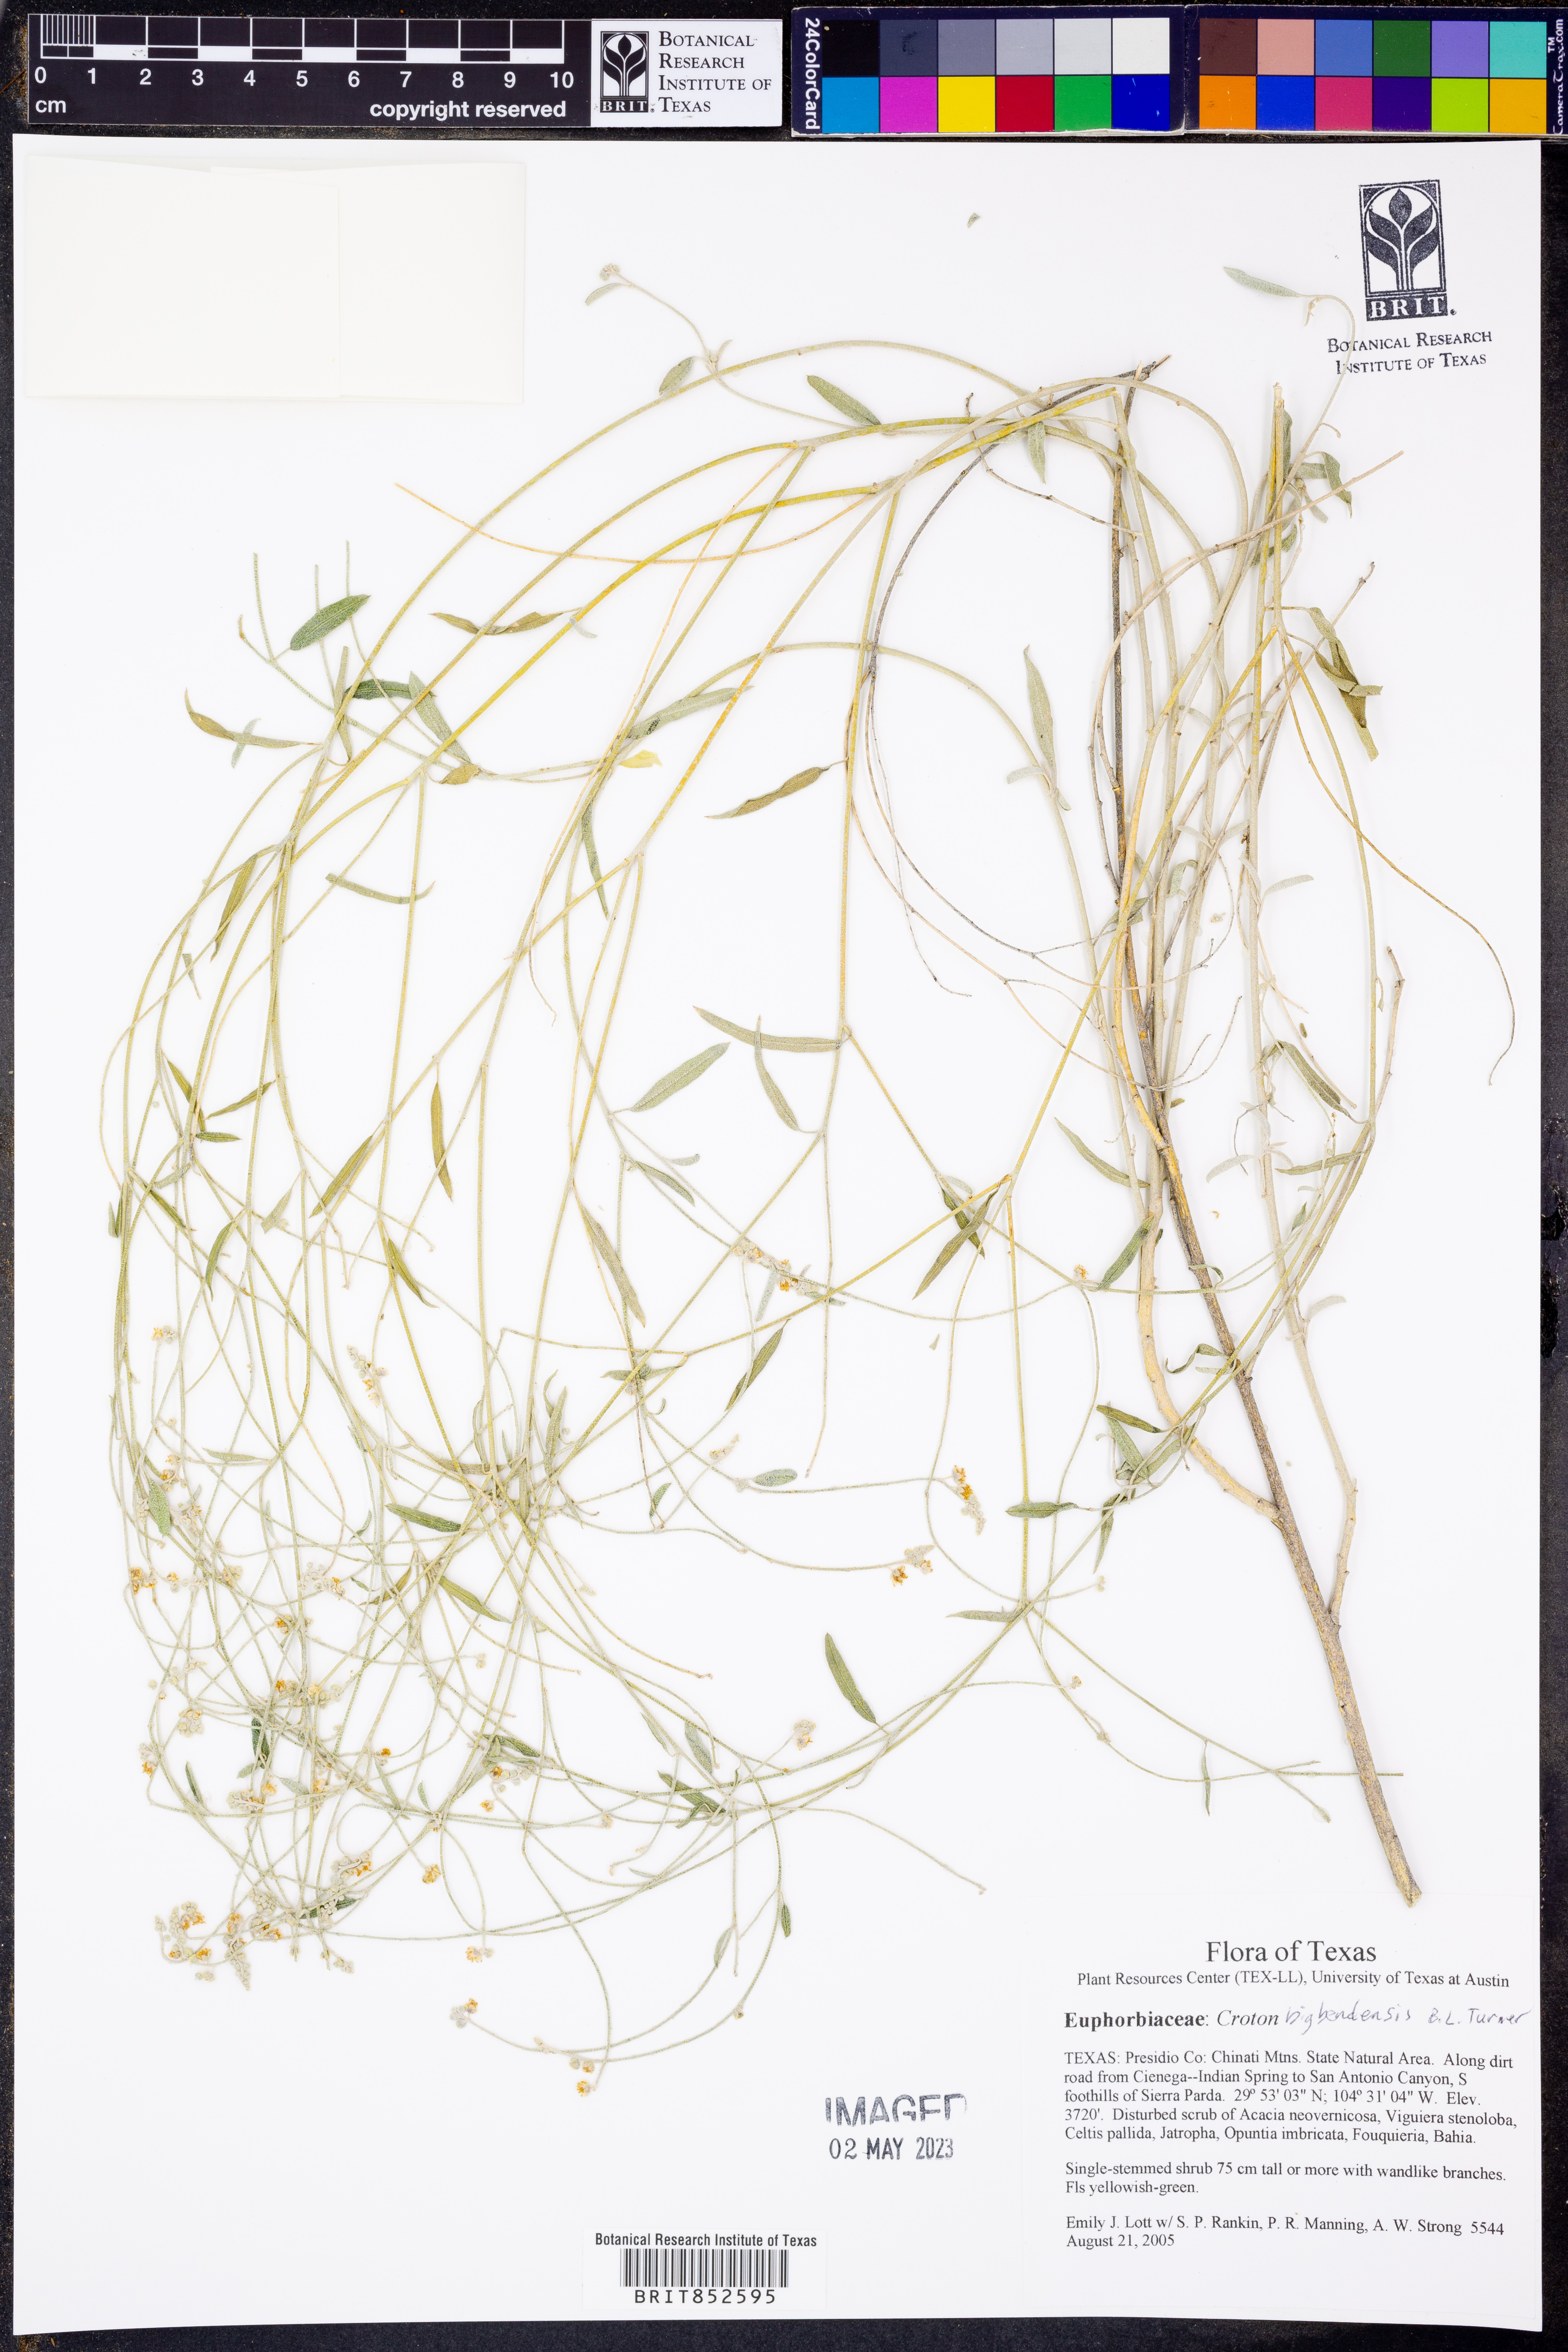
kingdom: Plantae
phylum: Tracheophyta
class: Magnoliopsida
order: Malpighiales
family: Euphorbiaceae
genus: Croton
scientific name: Croton bigbendensis
